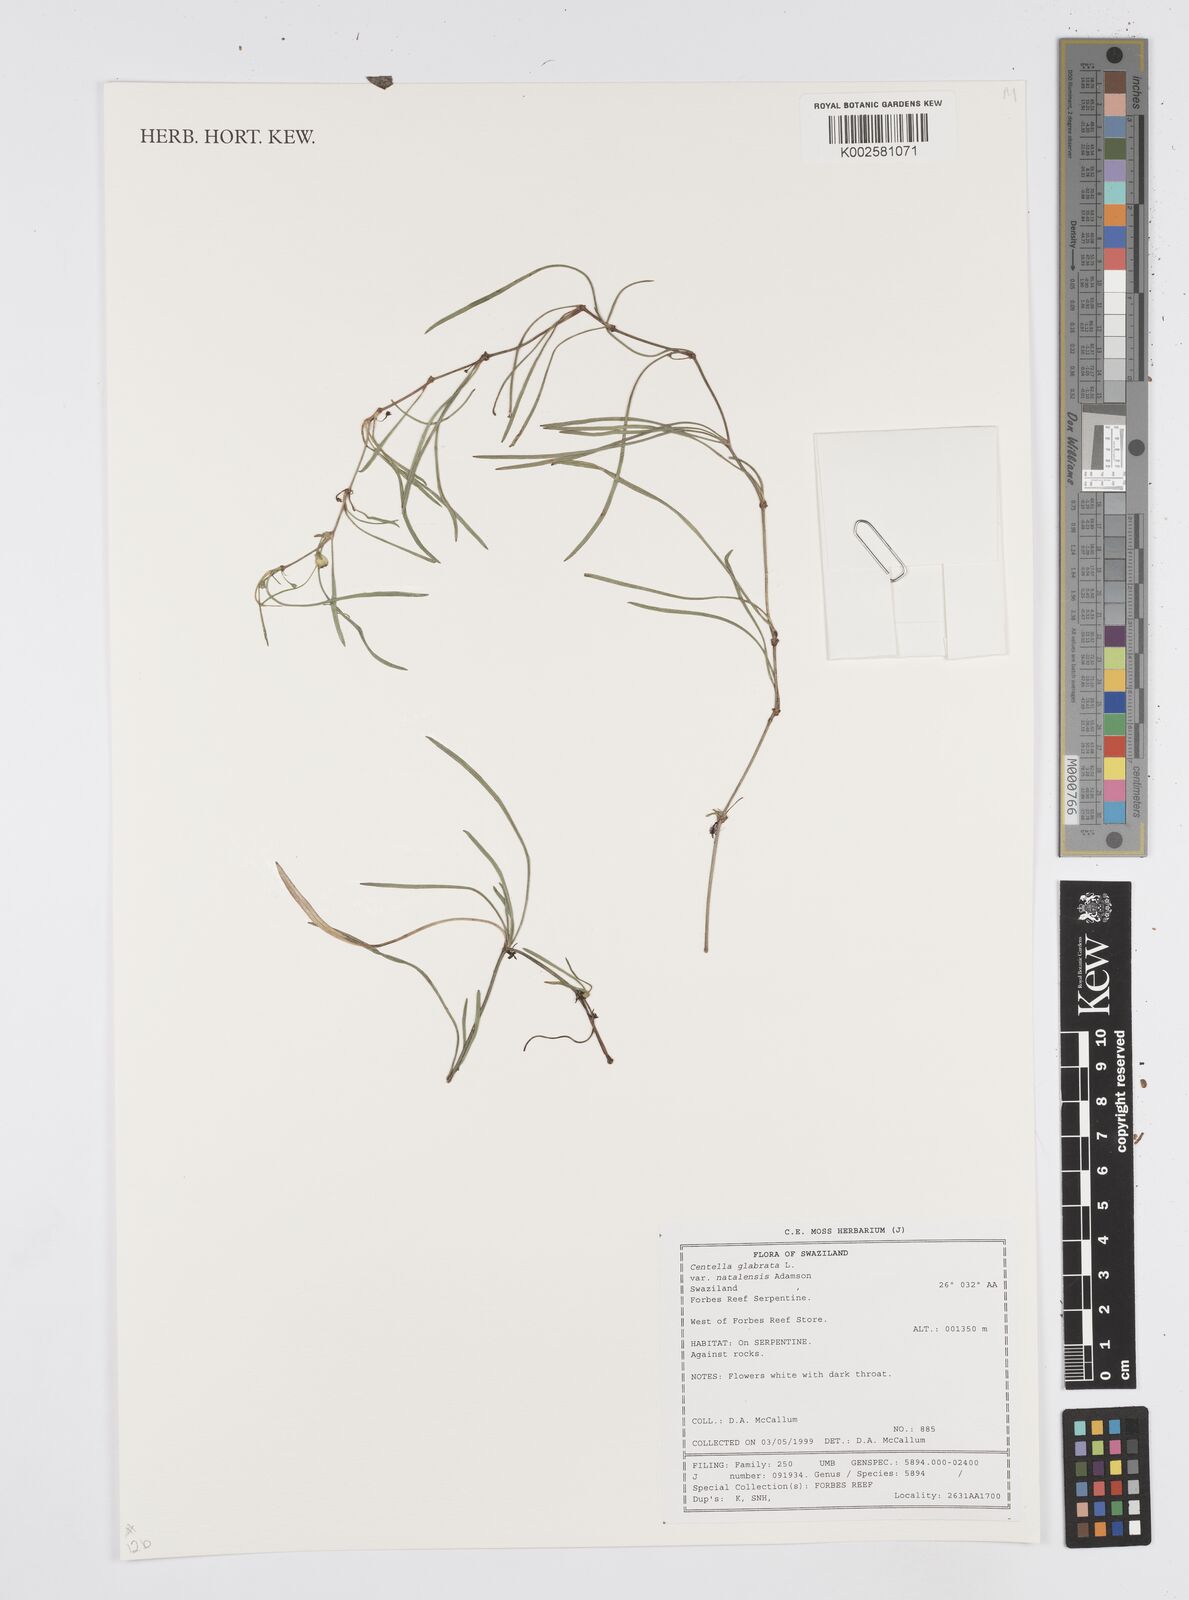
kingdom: Plantae
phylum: Tracheophyta
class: Magnoliopsida
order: Apiales
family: Apiaceae
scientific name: Apiaceae
